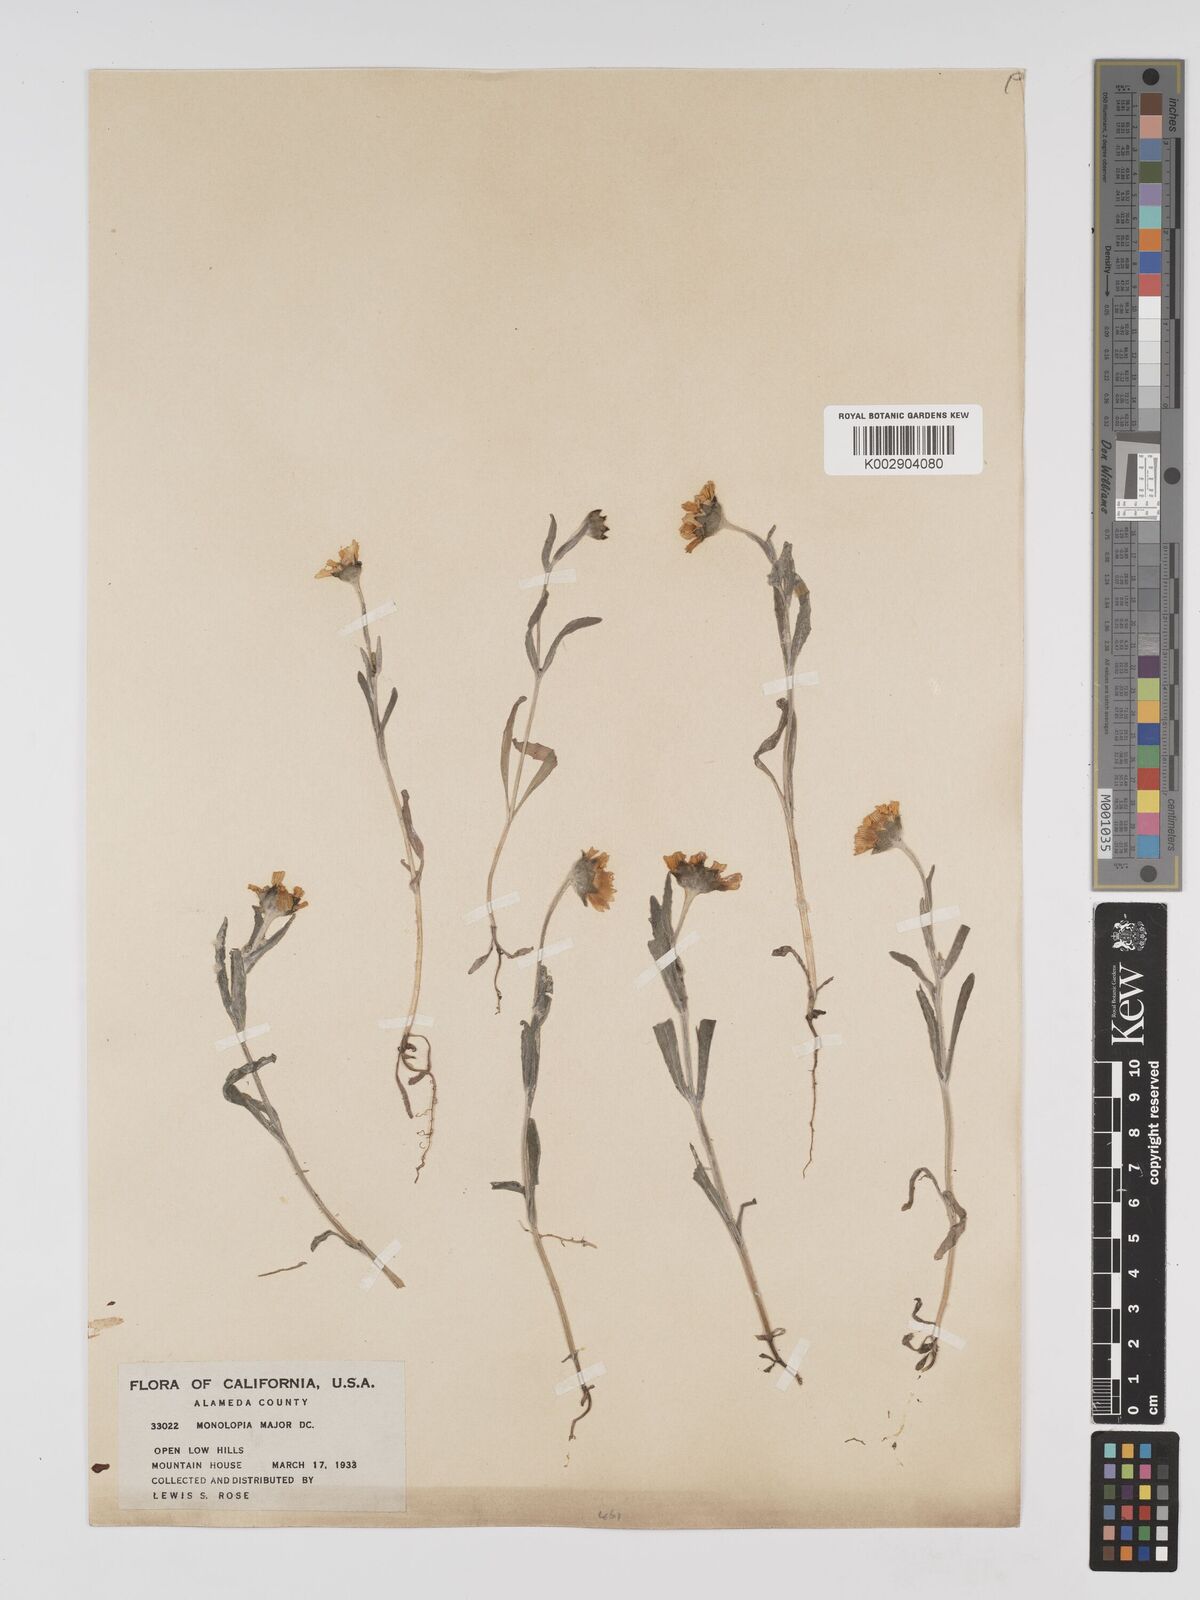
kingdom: Plantae
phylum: Tracheophyta
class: Magnoliopsida
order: Asterales
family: Asteraceae
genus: Monolopia
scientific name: Monolopia major
